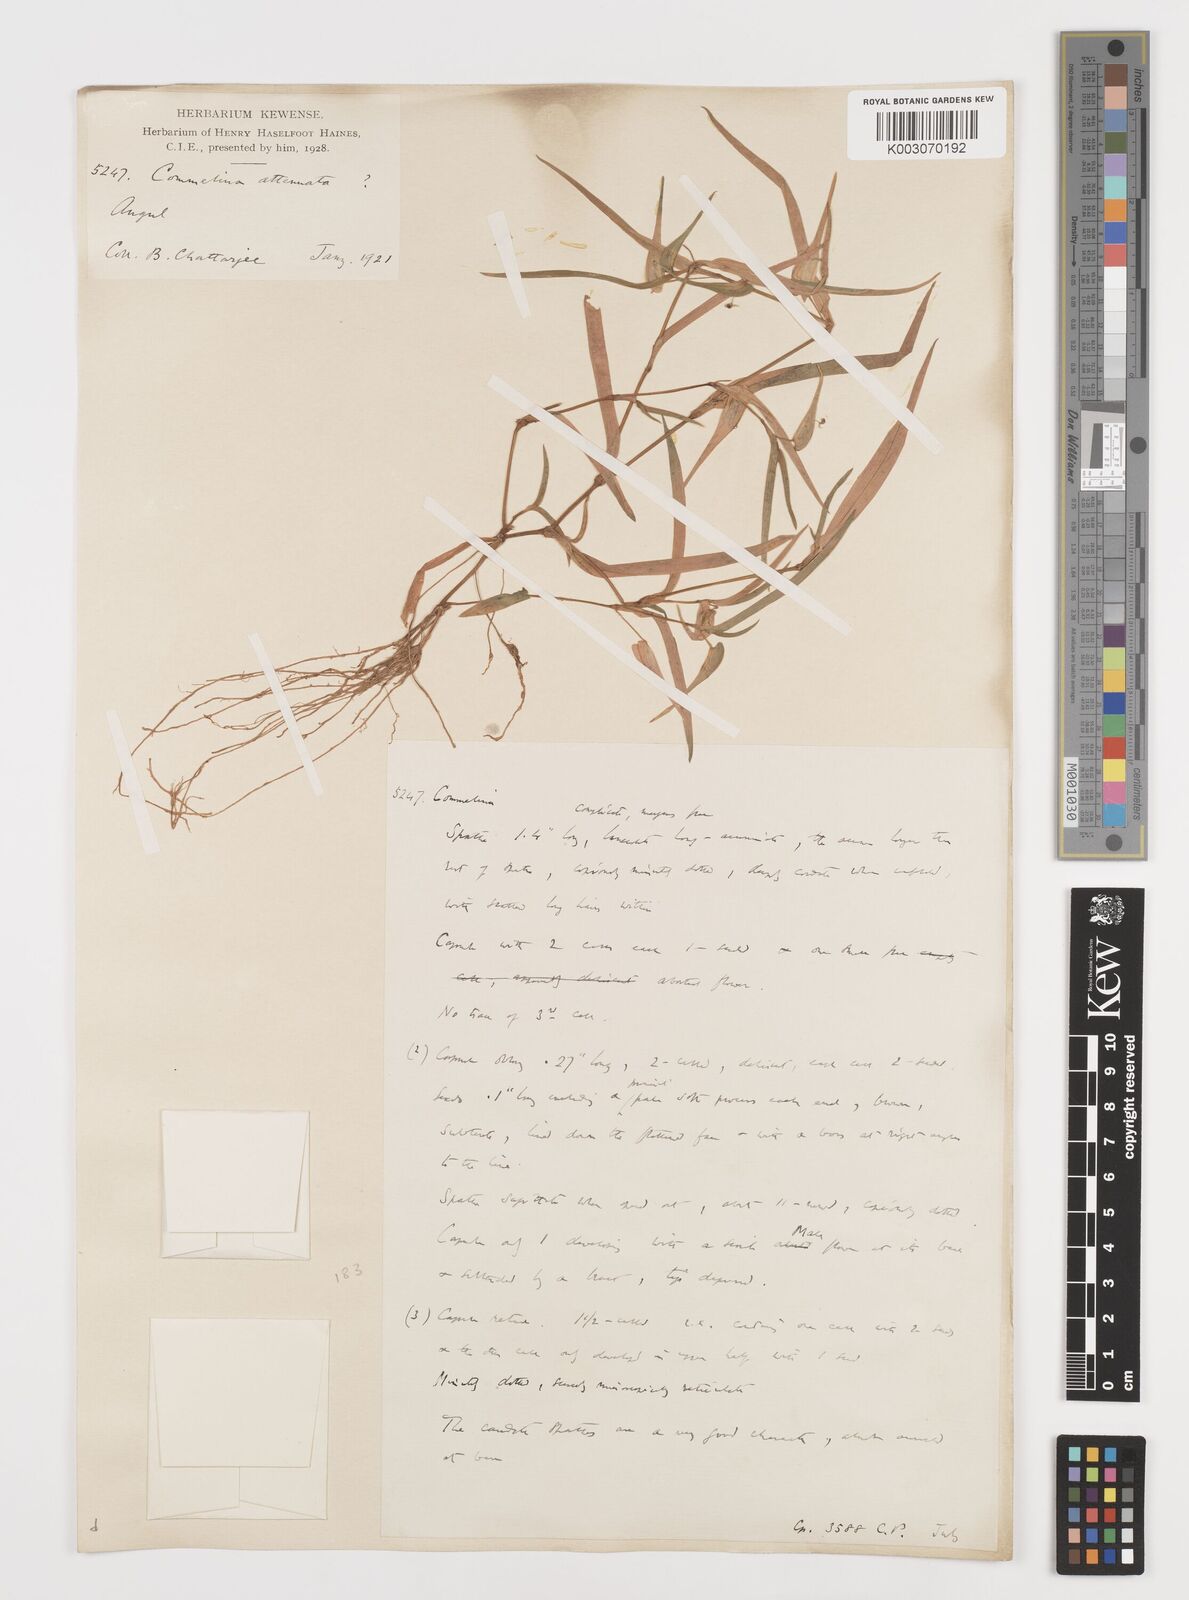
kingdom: Plantae
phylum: Tracheophyta
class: Liliopsida
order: Commelinales
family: Commelinaceae
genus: Commelina
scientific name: Commelina attenuata
